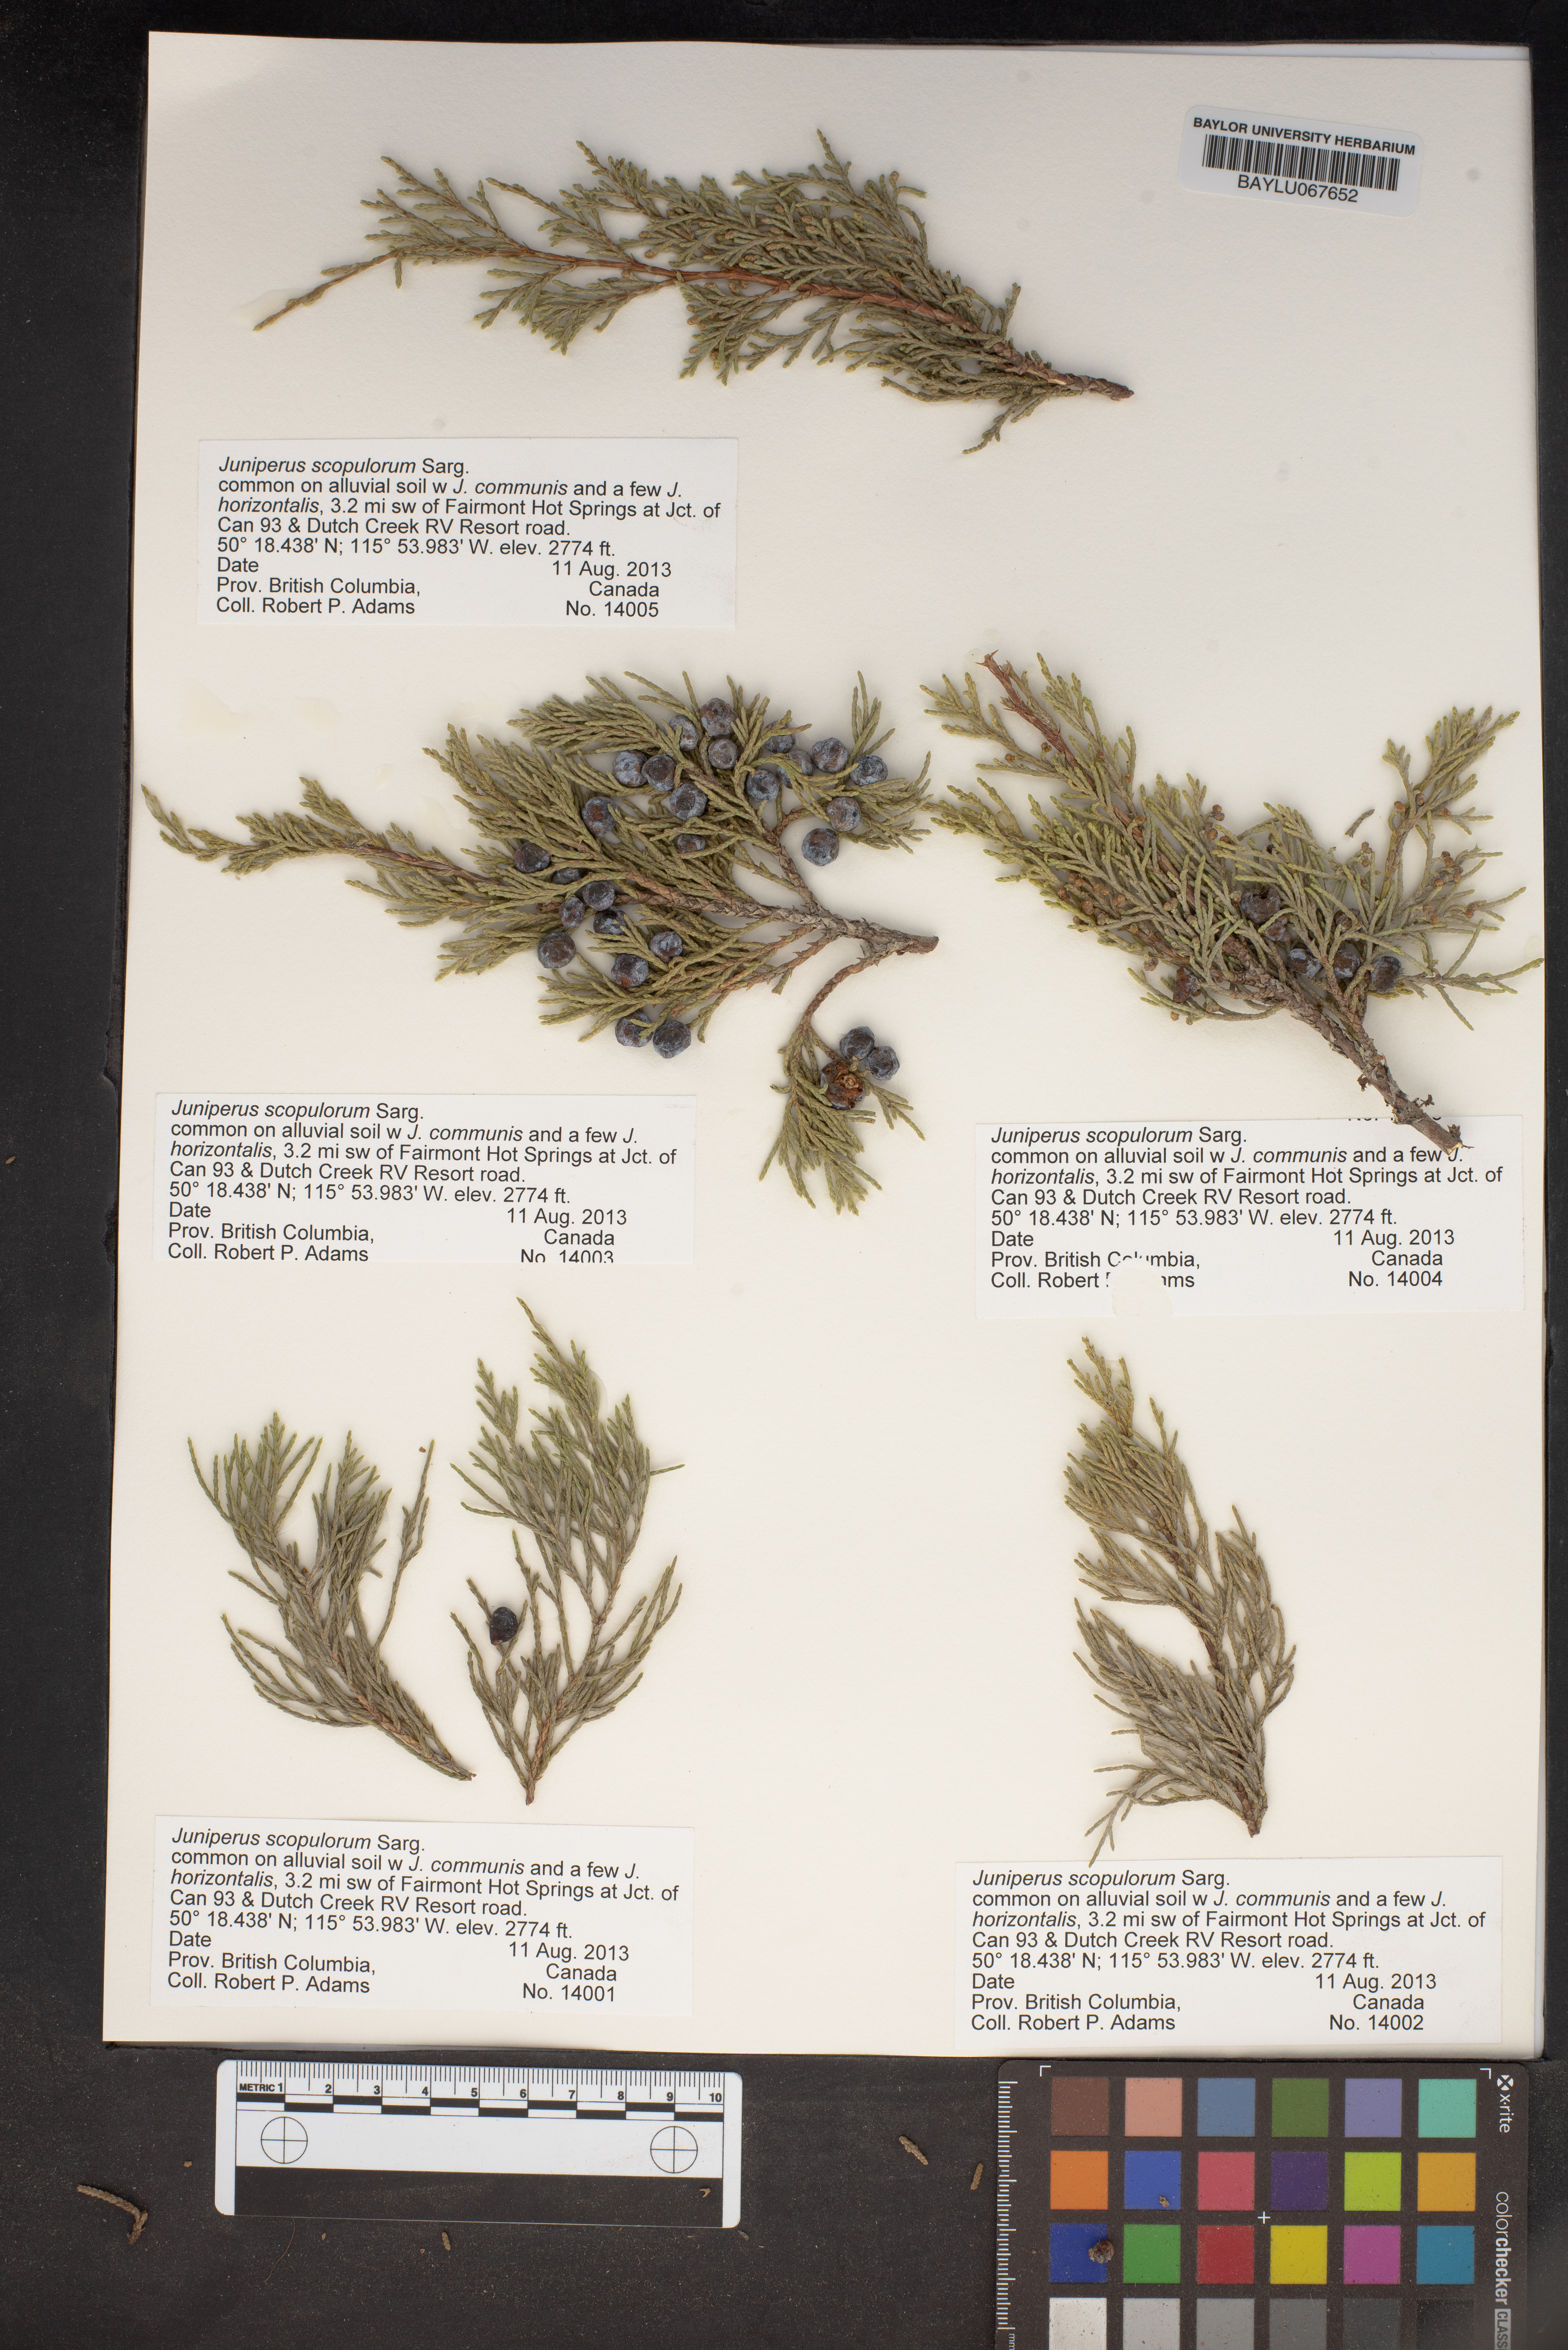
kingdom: Plantae
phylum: Tracheophyta
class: Pinopsida
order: Pinales
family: Cupressaceae
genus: Juniperus
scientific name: Juniperus scopulorum
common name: Rocky mountain juniper
